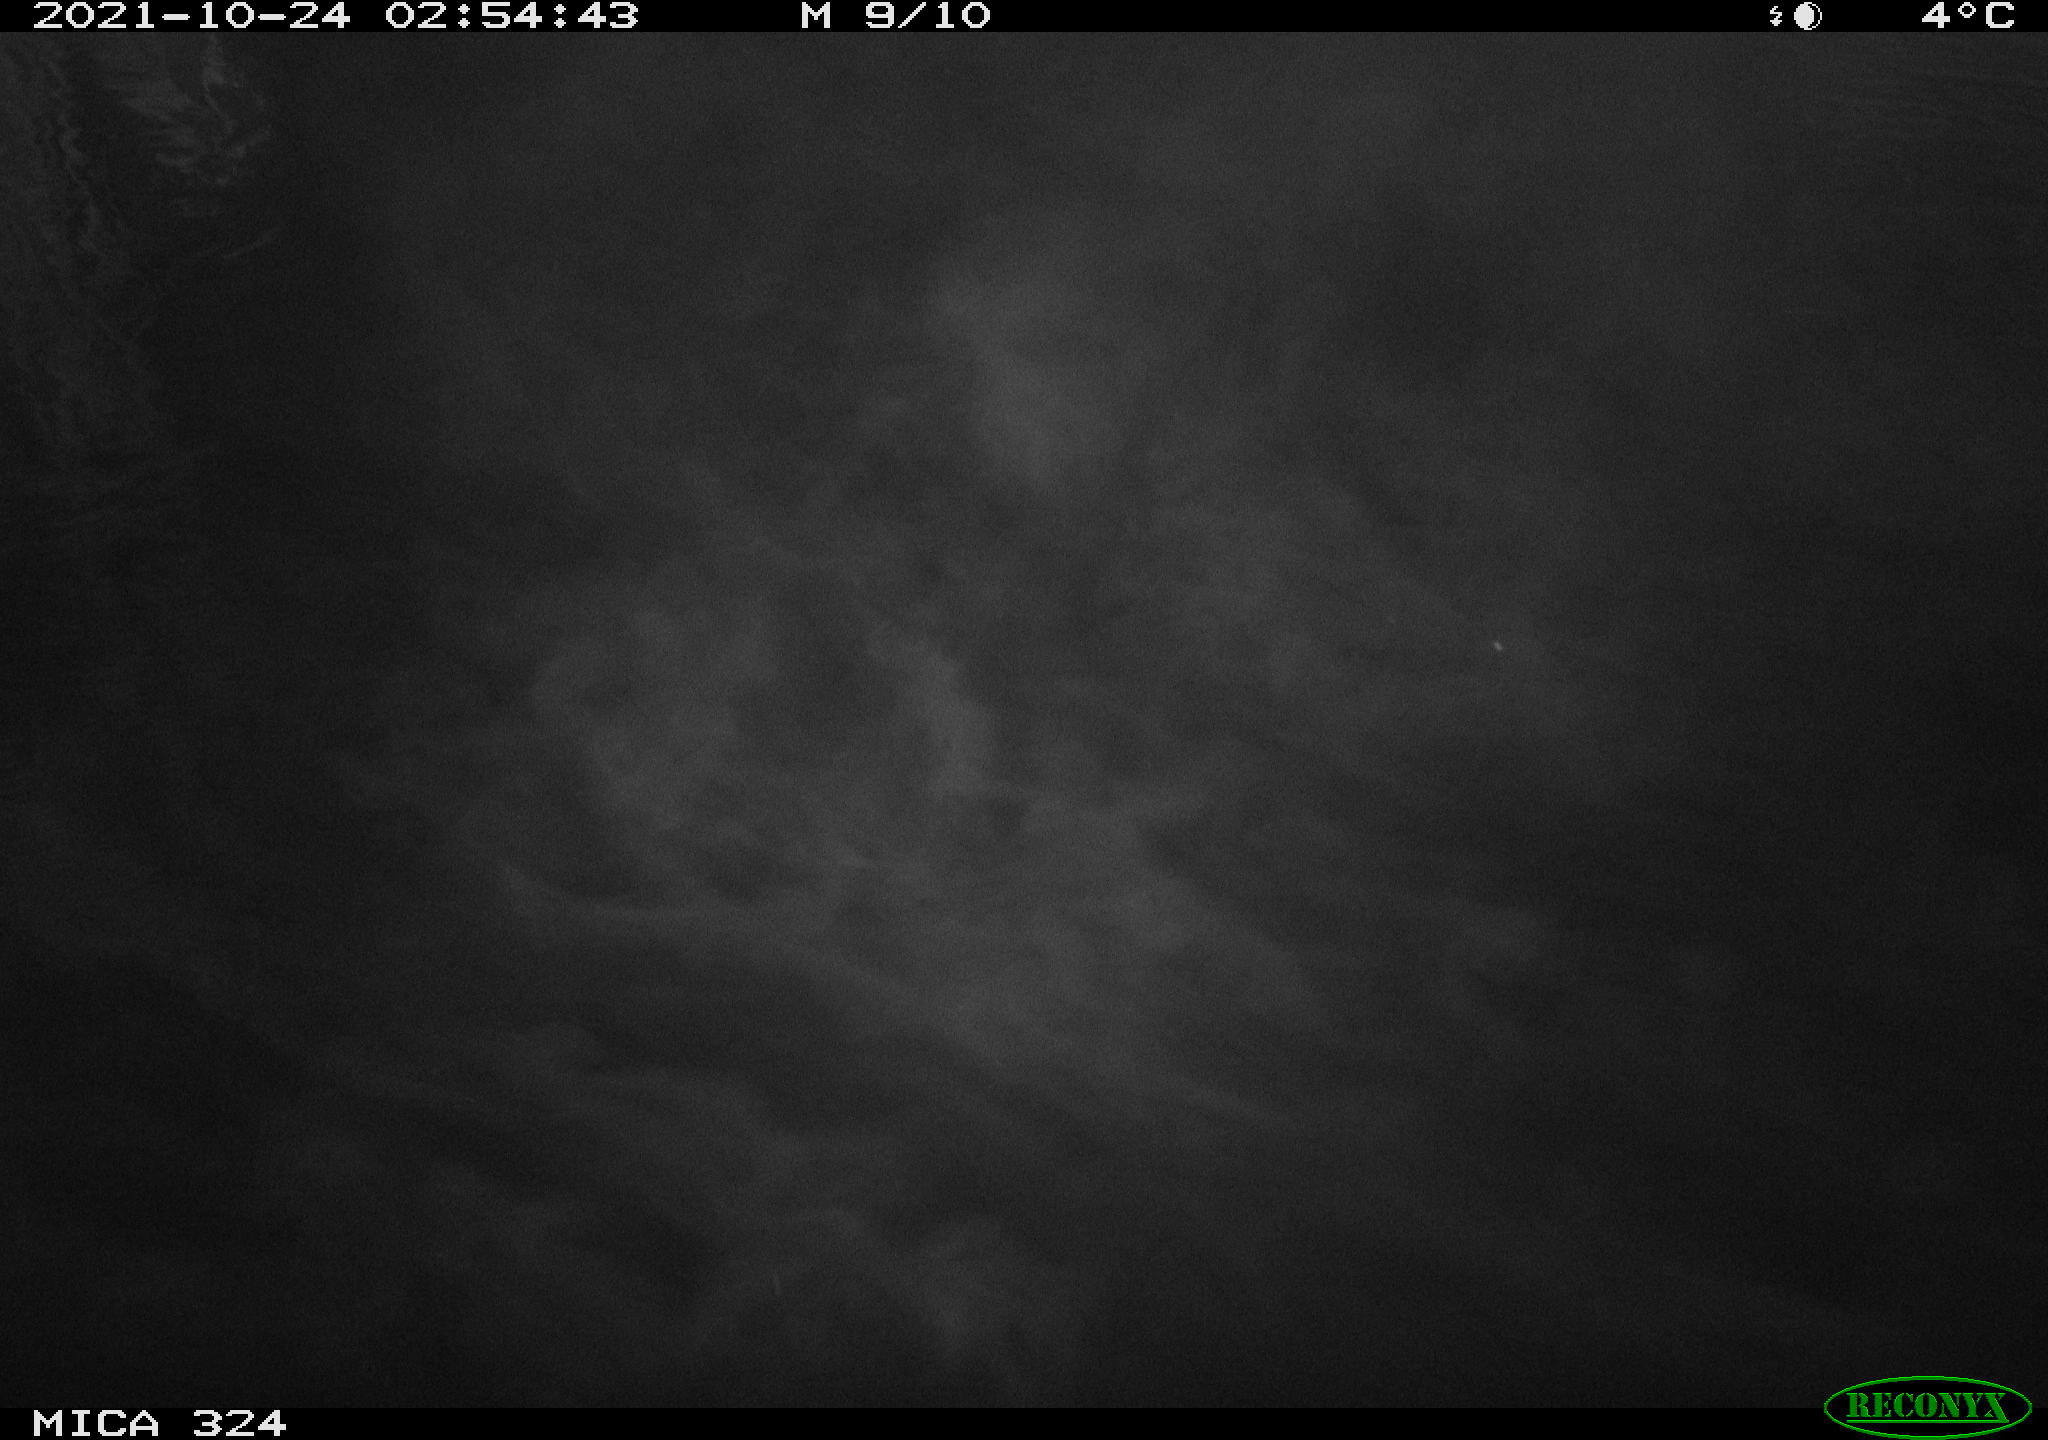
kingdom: Animalia
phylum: Chordata
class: Mammalia
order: Rodentia
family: Cricetidae
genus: Ondatra
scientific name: Ondatra zibethicus
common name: Muskrat
